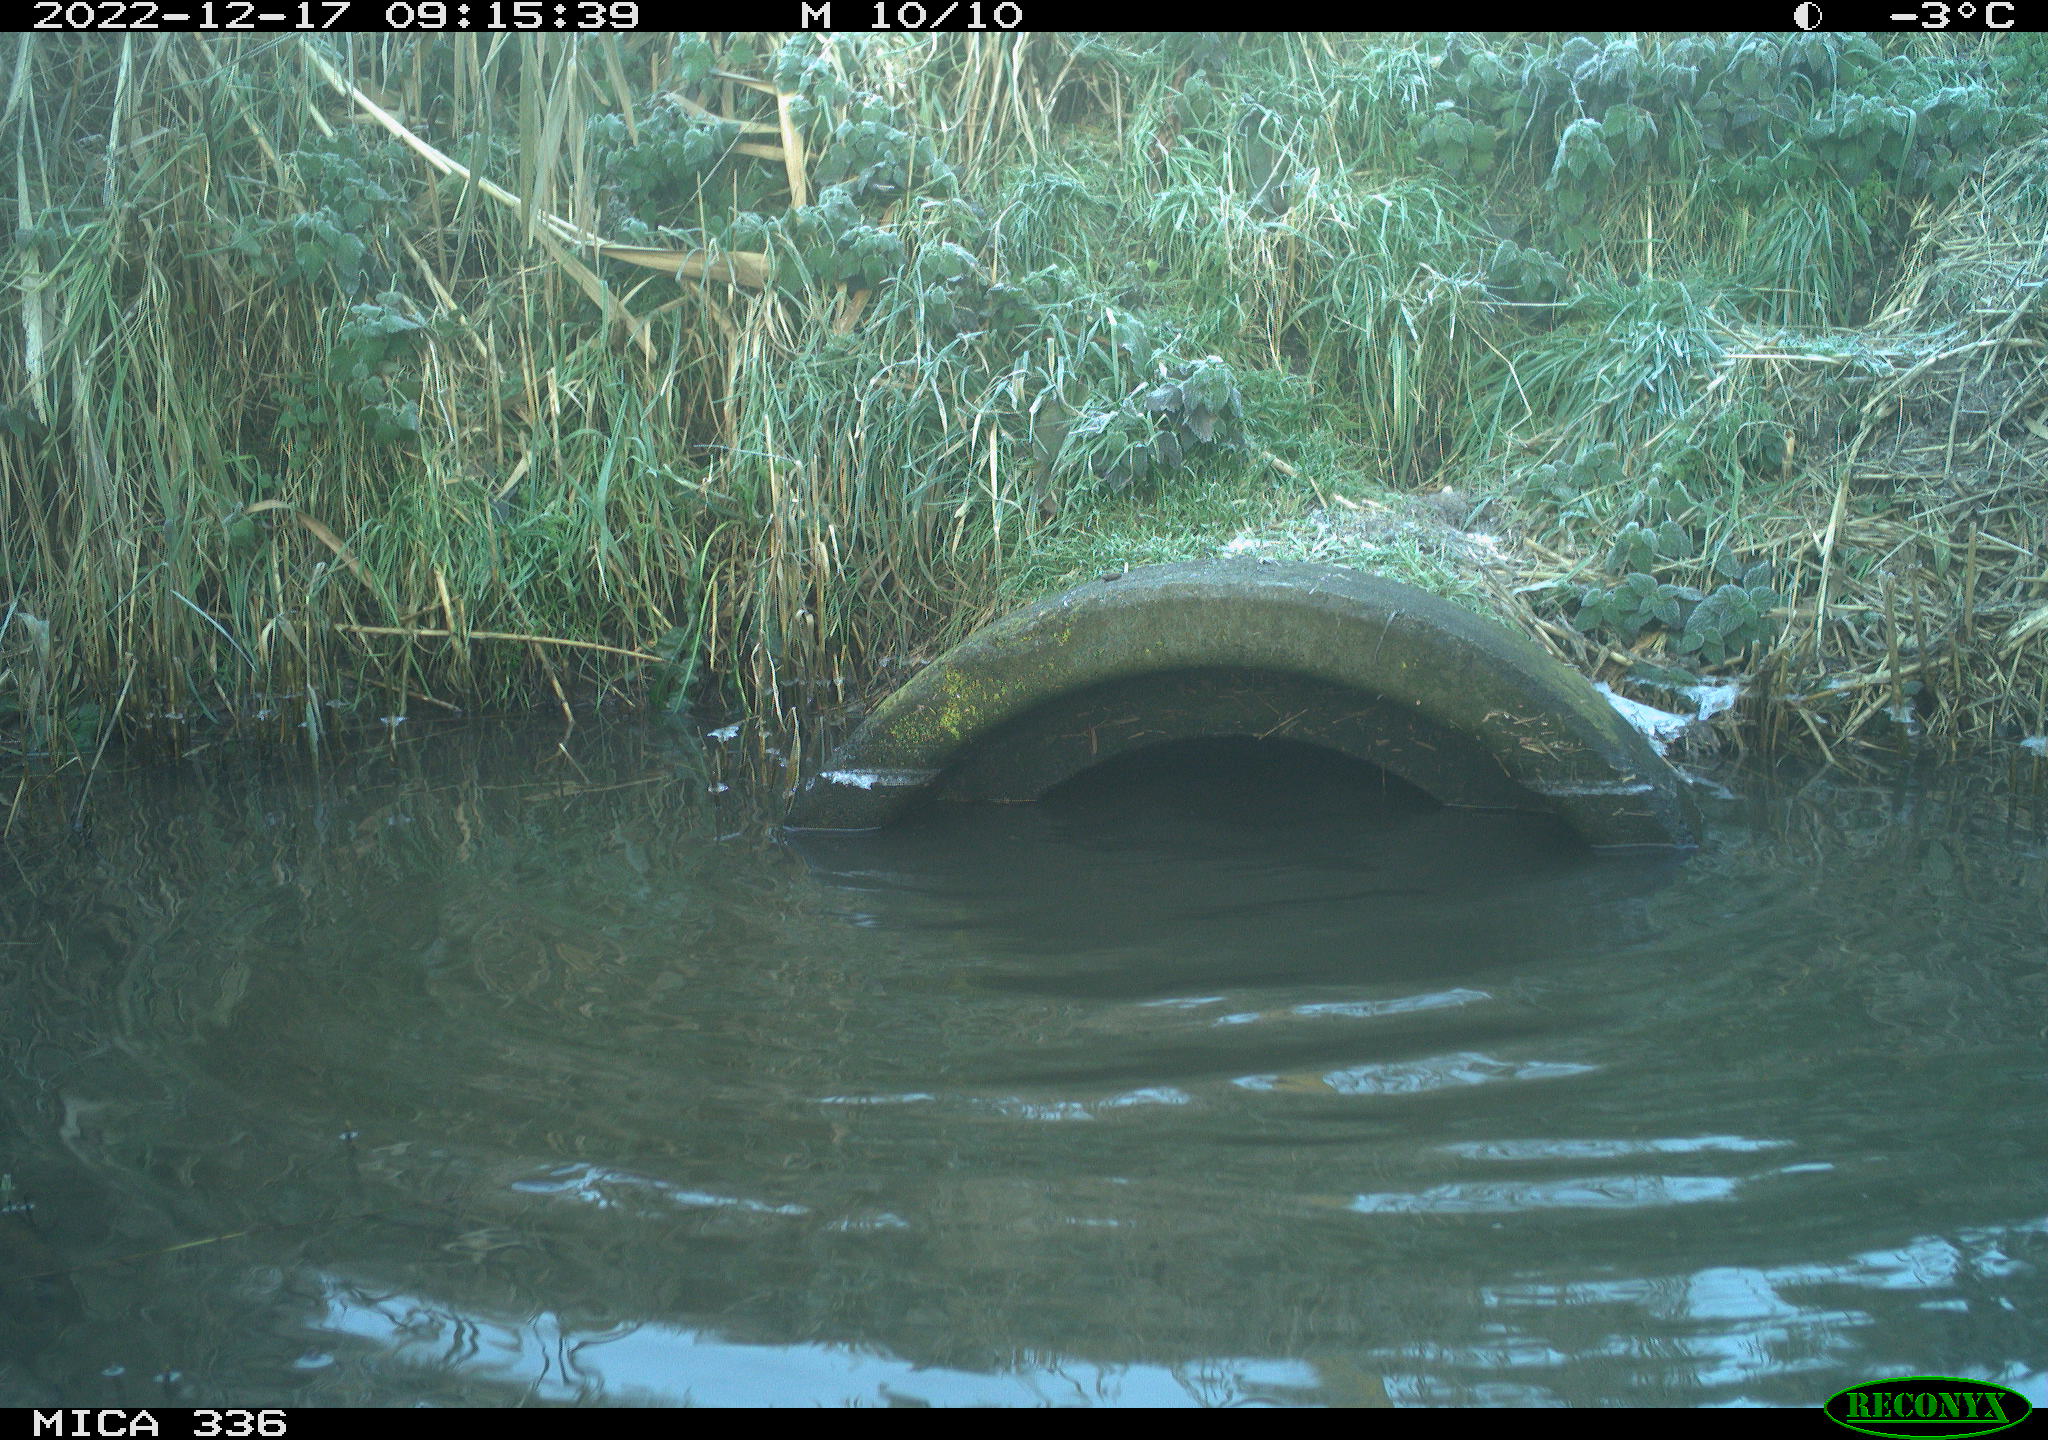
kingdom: Animalia
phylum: Chordata
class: Aves
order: Anseriformes
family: Anatidae
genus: Anas
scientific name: Anas
